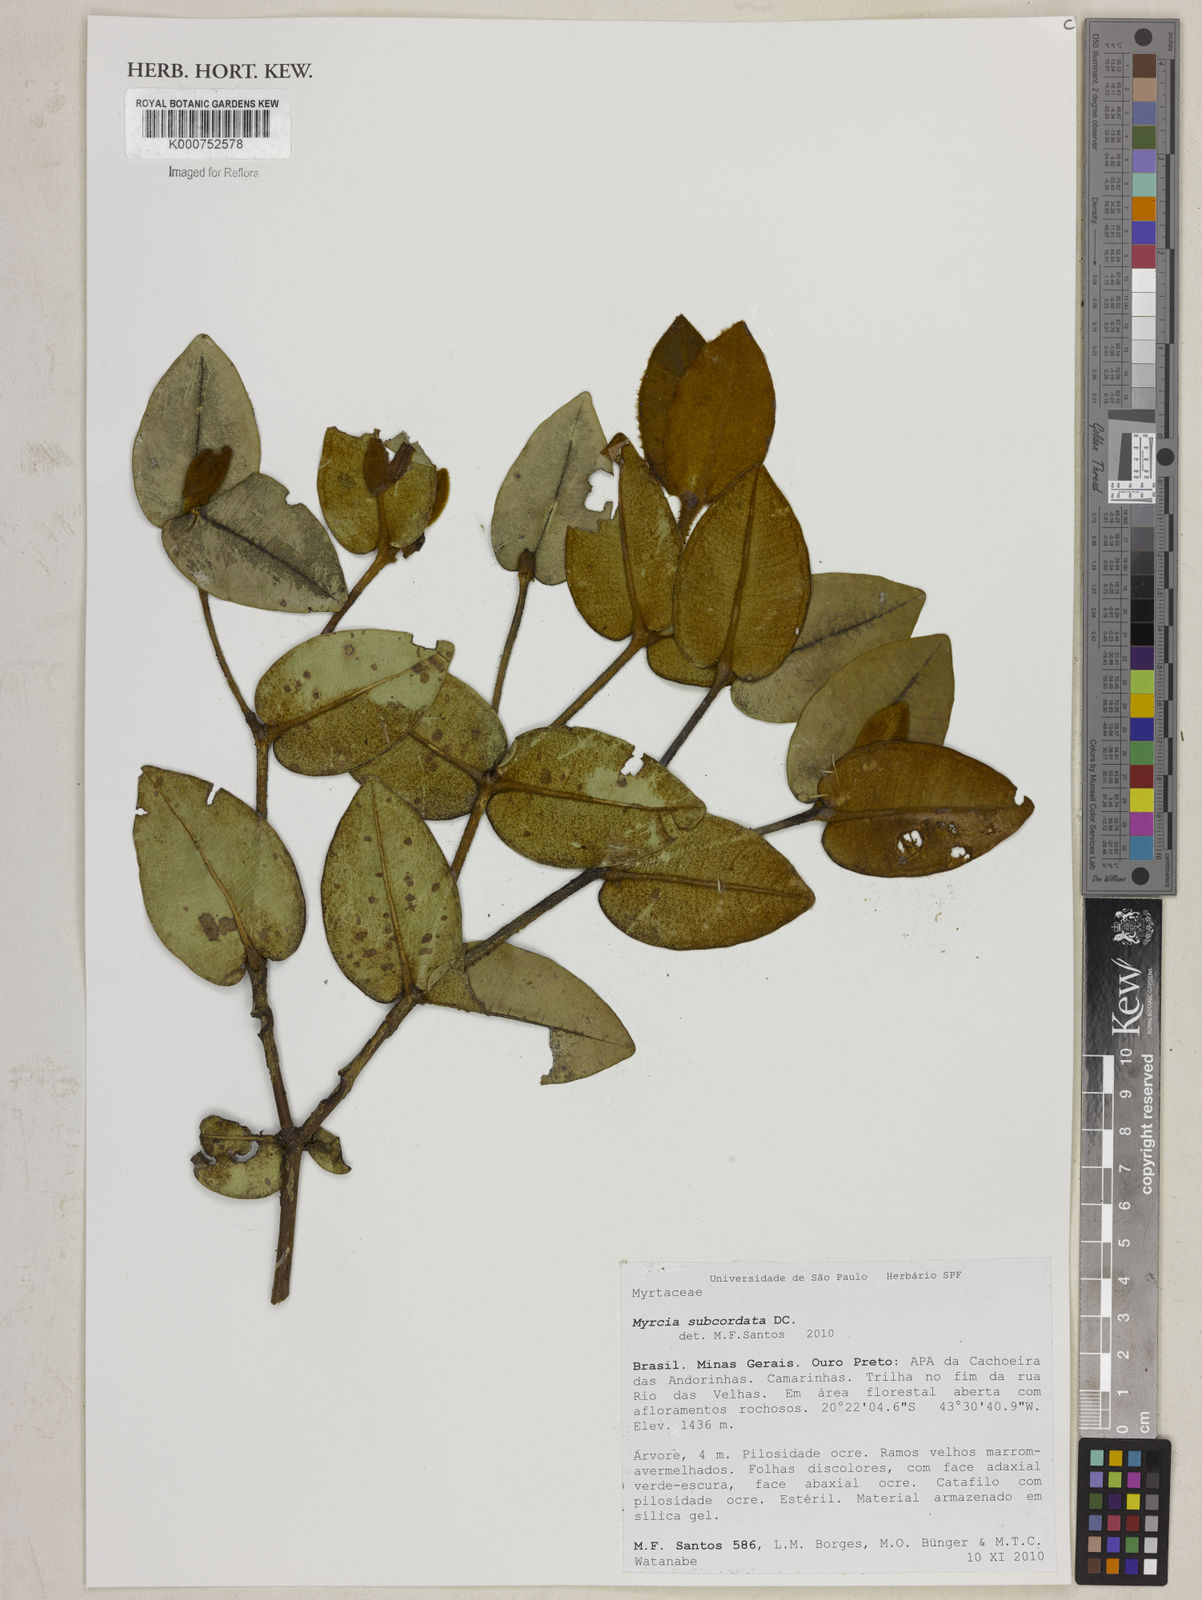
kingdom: Plantae
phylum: Tracheophyta
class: Magnoliopsida
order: Myrtales
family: Myrtaceae
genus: Myrcia
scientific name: Myrcia subcordata
